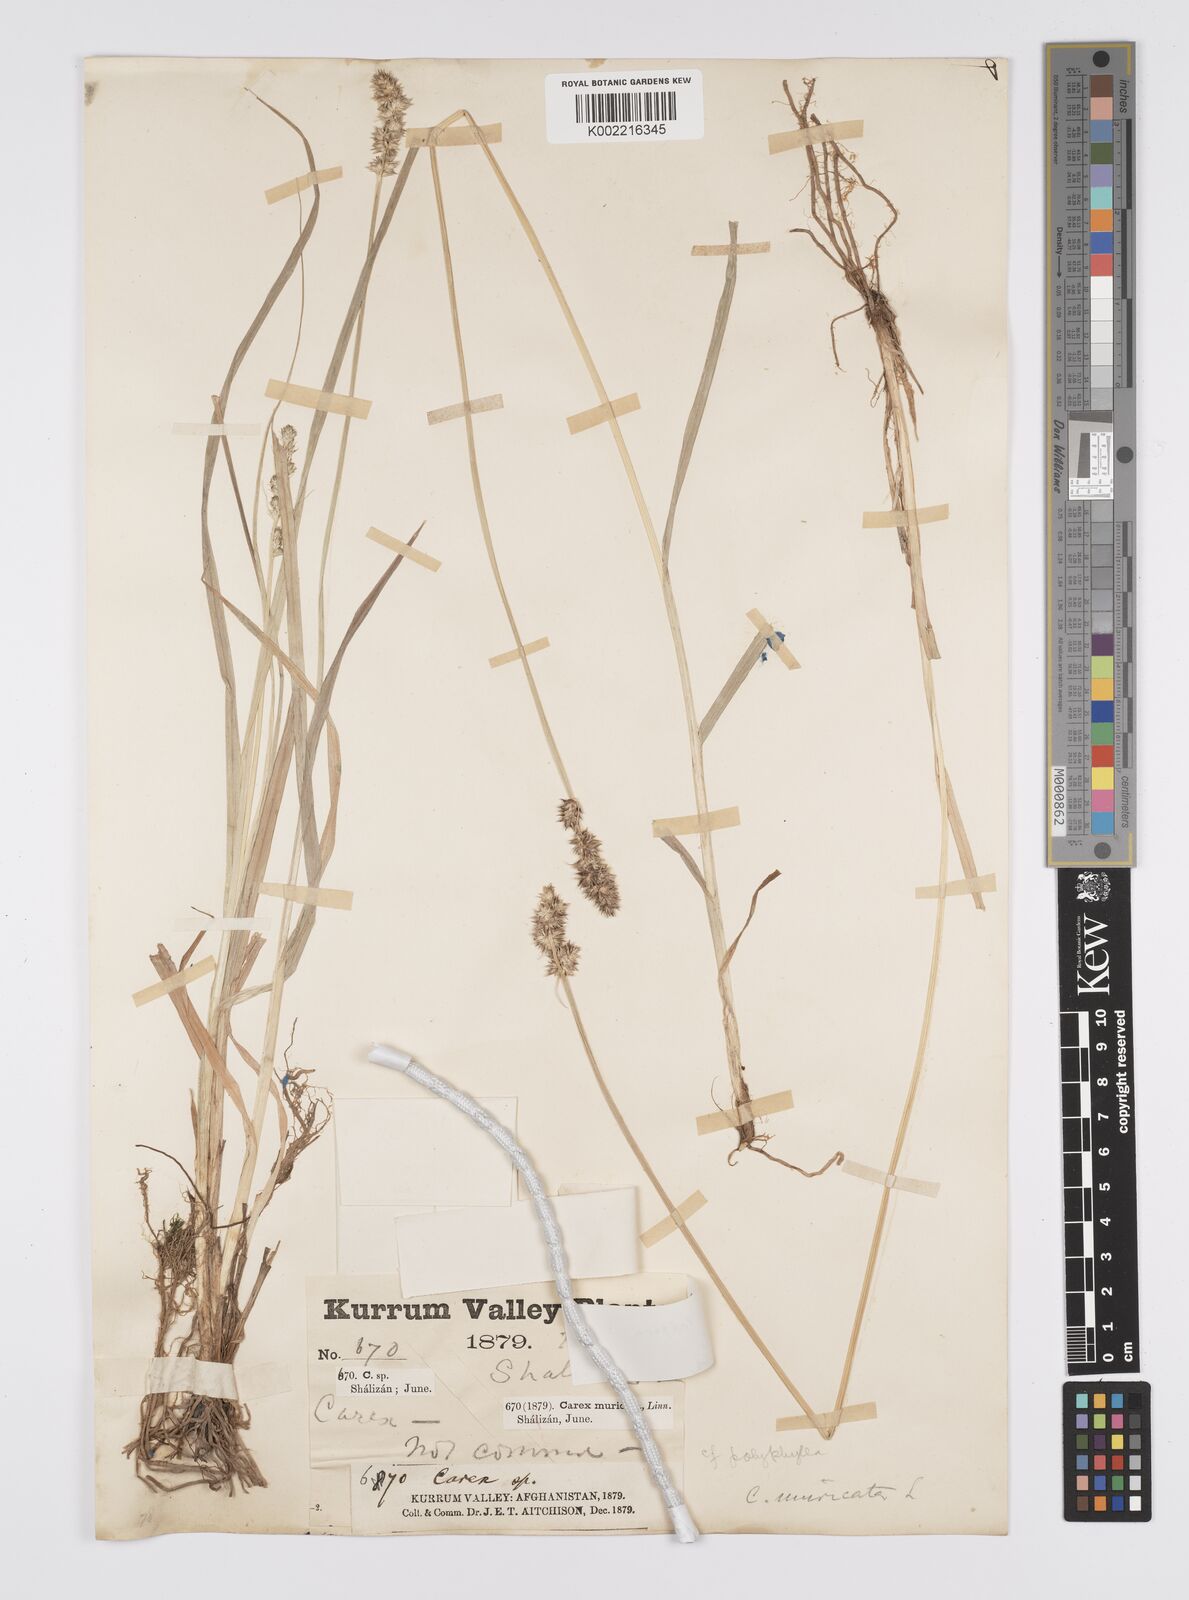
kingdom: Plantae
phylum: Tracheophyta
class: Liliopsida
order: Poales
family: Cyperaceae
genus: Carex
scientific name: Carex otrubae
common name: False fox-sedge
